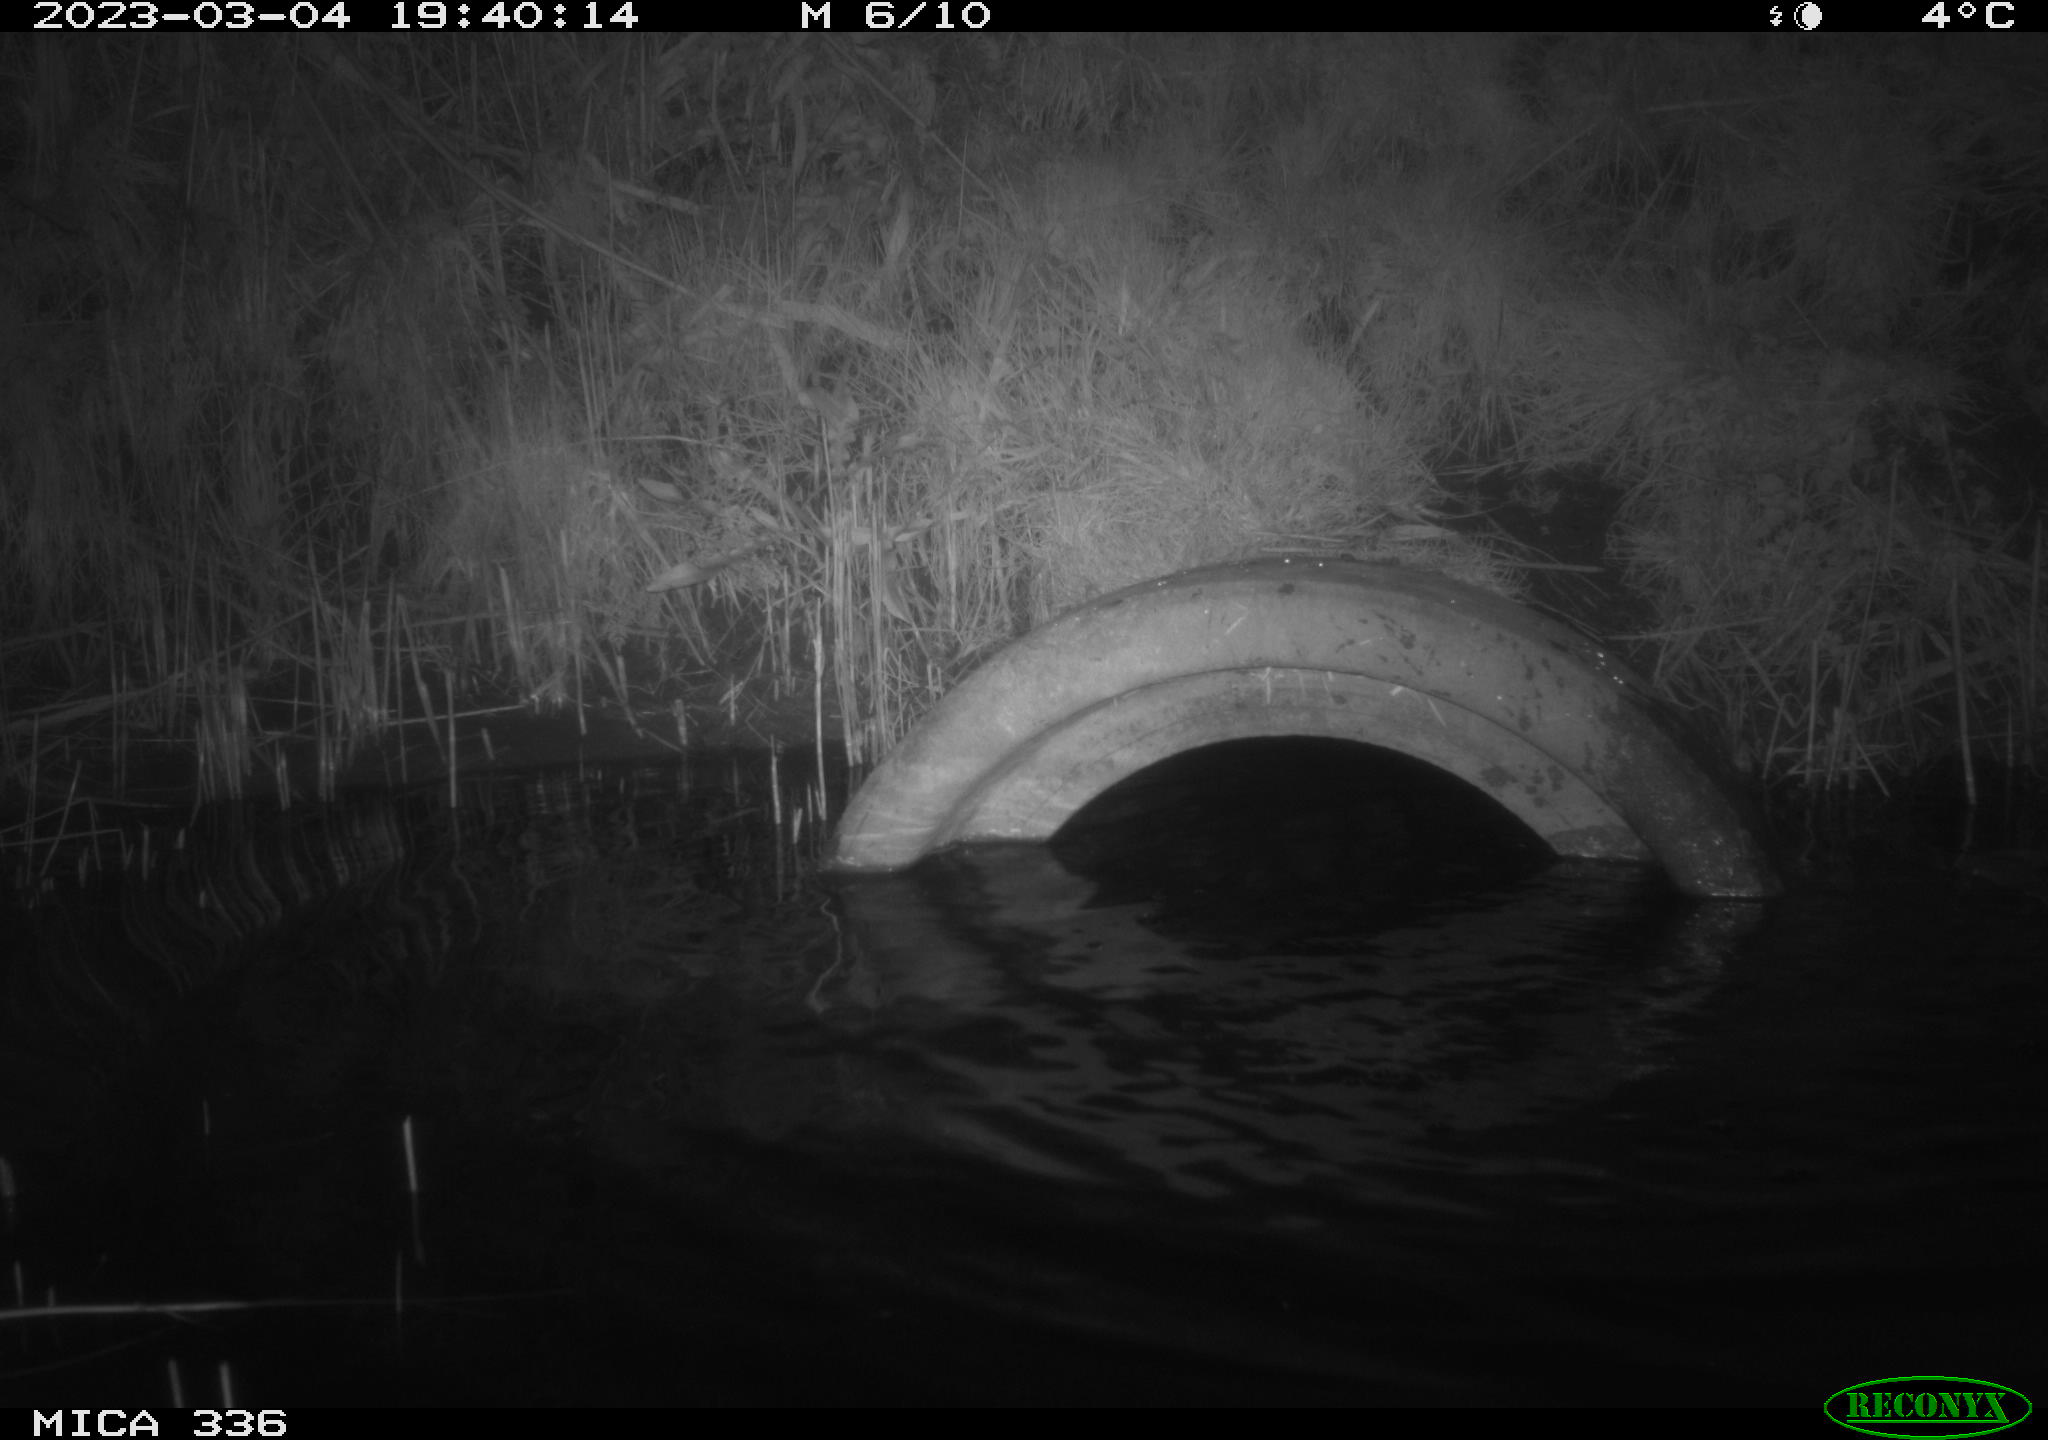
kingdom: Animalia
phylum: Chordata
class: Aves
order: Pelecaniformes
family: Ardeidae
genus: Ardea
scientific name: Ardea cinerea
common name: Grey heron
